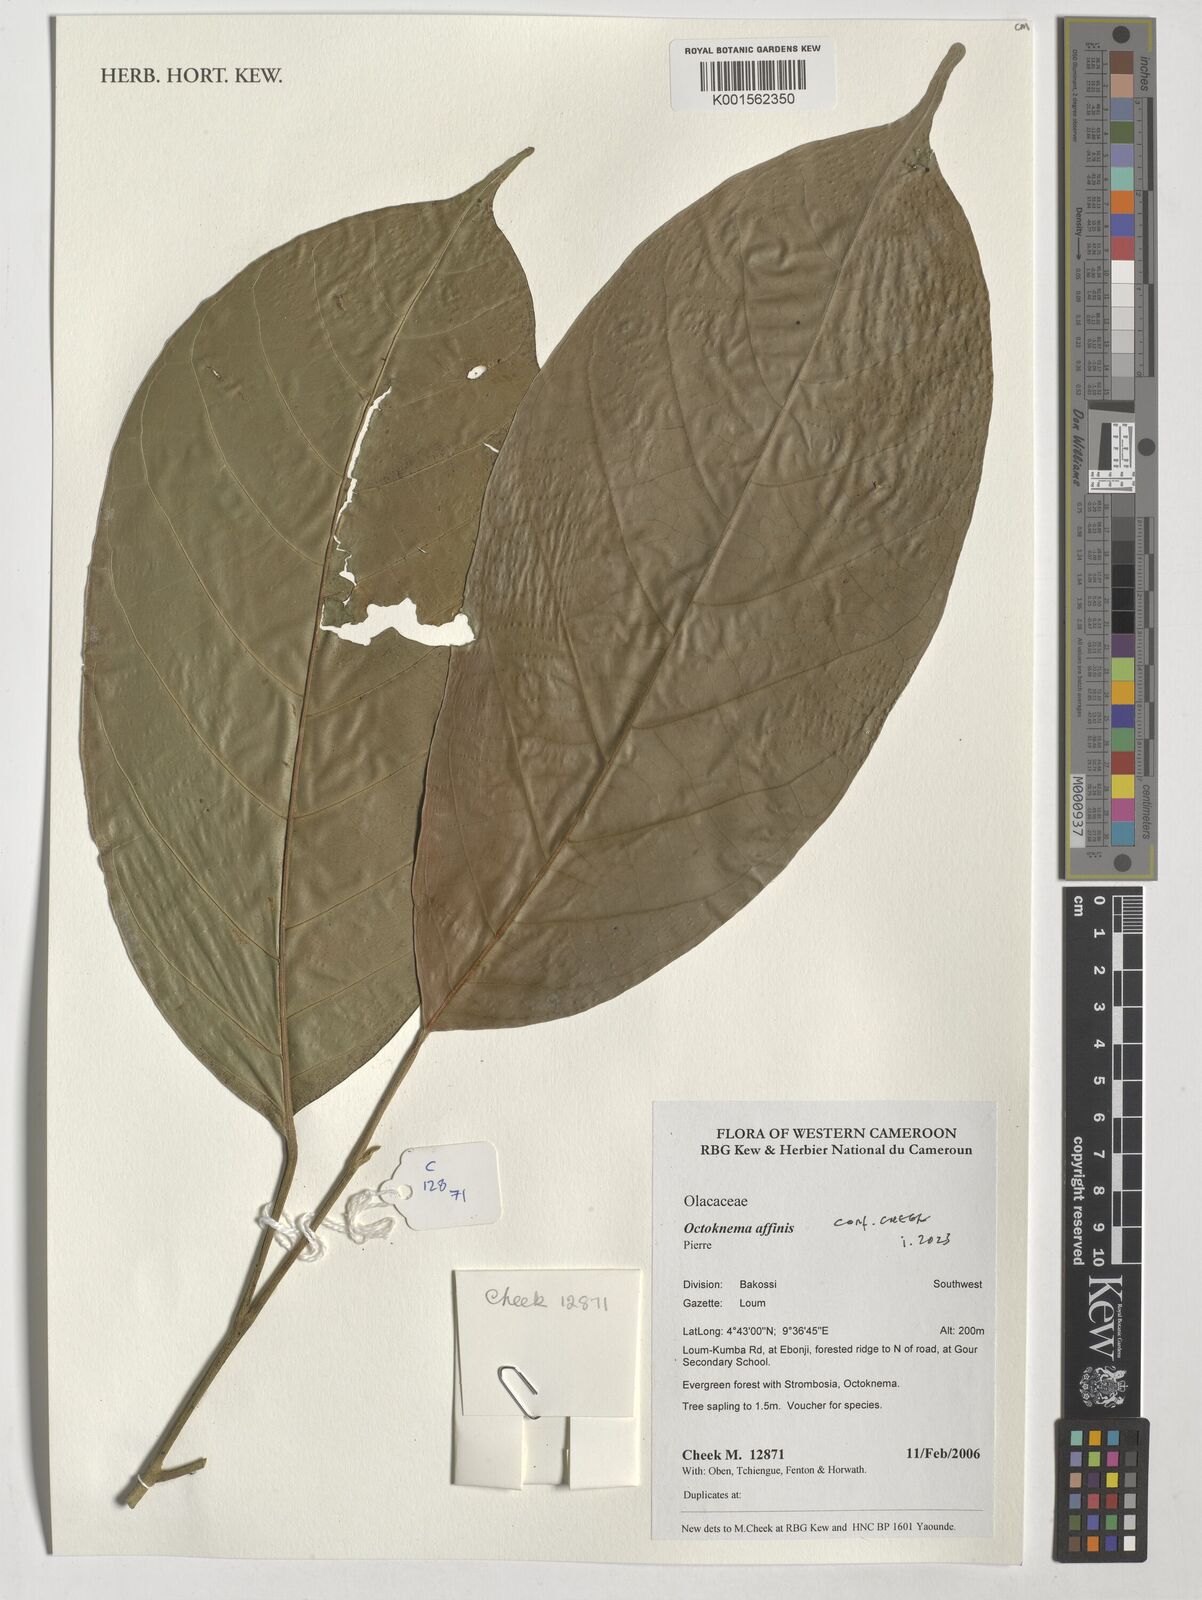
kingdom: Plantae
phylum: Tracheophyta
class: Magnoliopsida
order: Santalales
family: Octoknemaceae
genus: Octoknema
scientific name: Octoknema affinis
